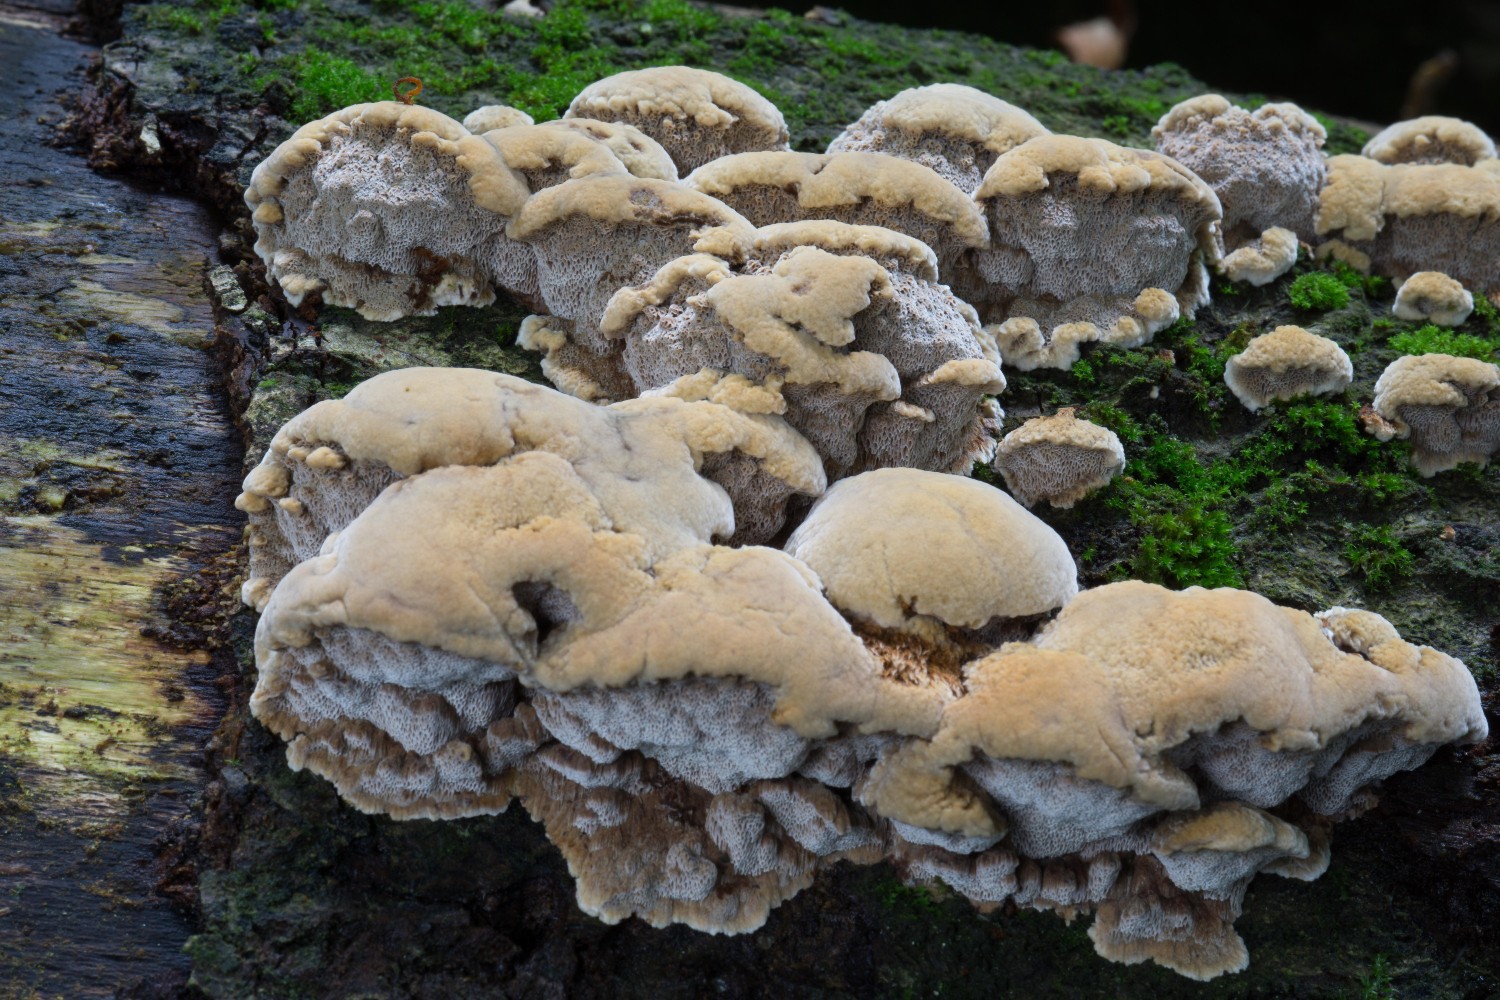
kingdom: Fungi
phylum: Basidiomycota
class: Agaricomycetes
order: Hymenochaetales
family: Hymenochaetaceae
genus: Mensularia
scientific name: Mensularia nodulosa
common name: bøge-spejlporesvamp
